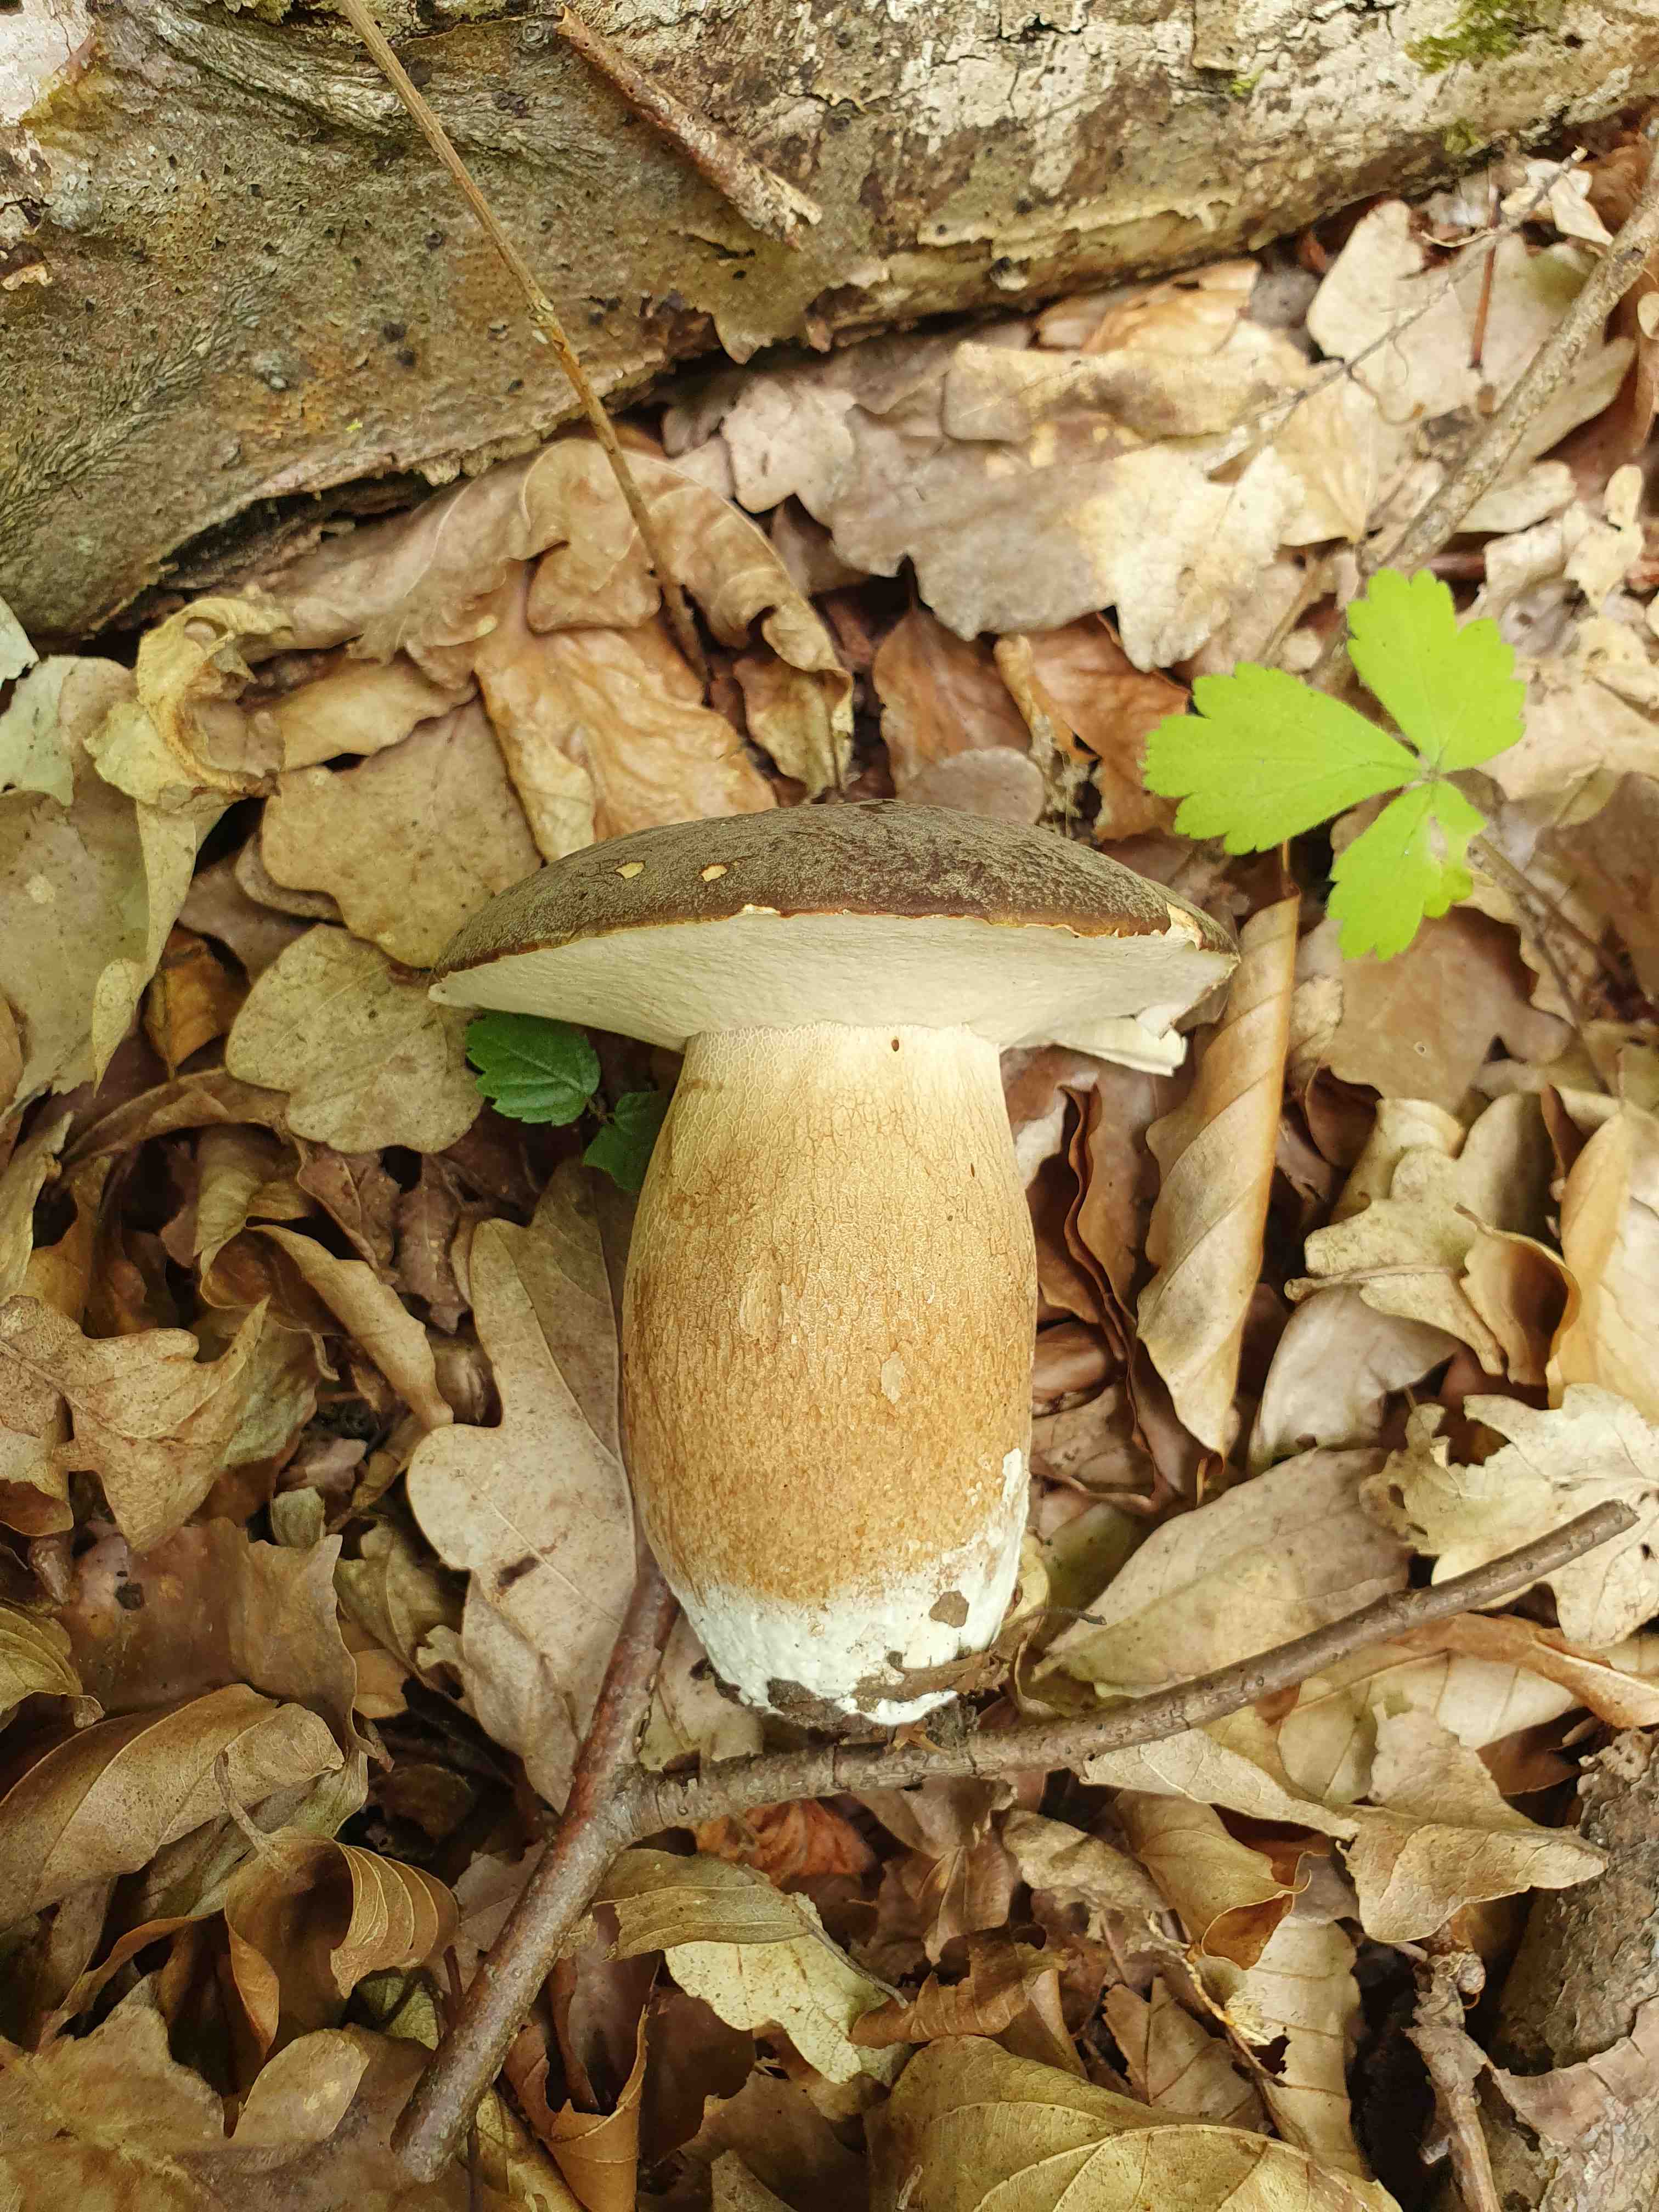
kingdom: Fungi
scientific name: Fungi
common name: bronze-rørhat
